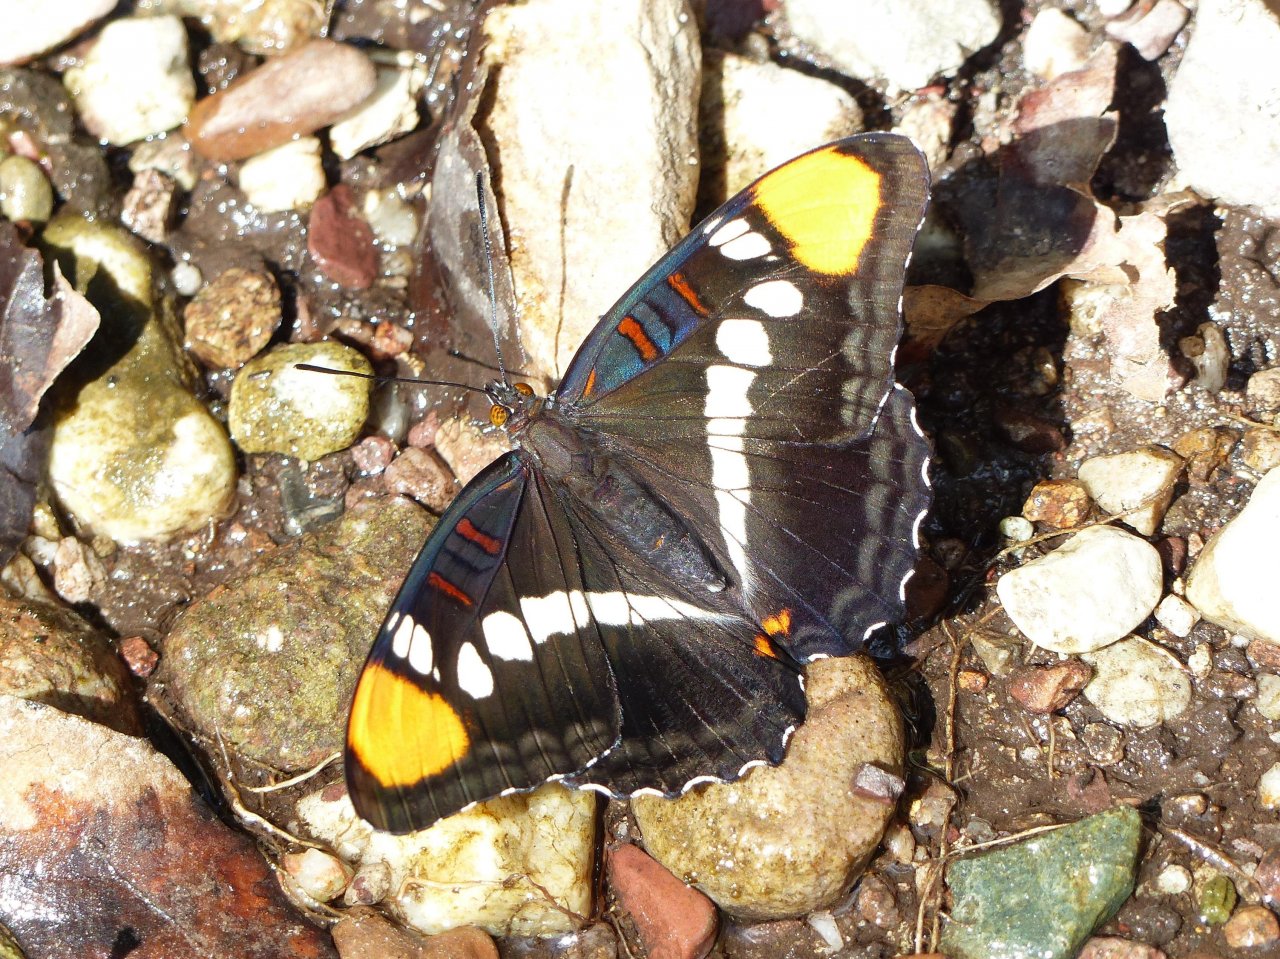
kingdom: Animalia
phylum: Arthropoda
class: Insecta
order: Lepidoptera
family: Nymphalidae
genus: Limenitis
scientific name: Limenitis bredowii
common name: Arizona Sister
